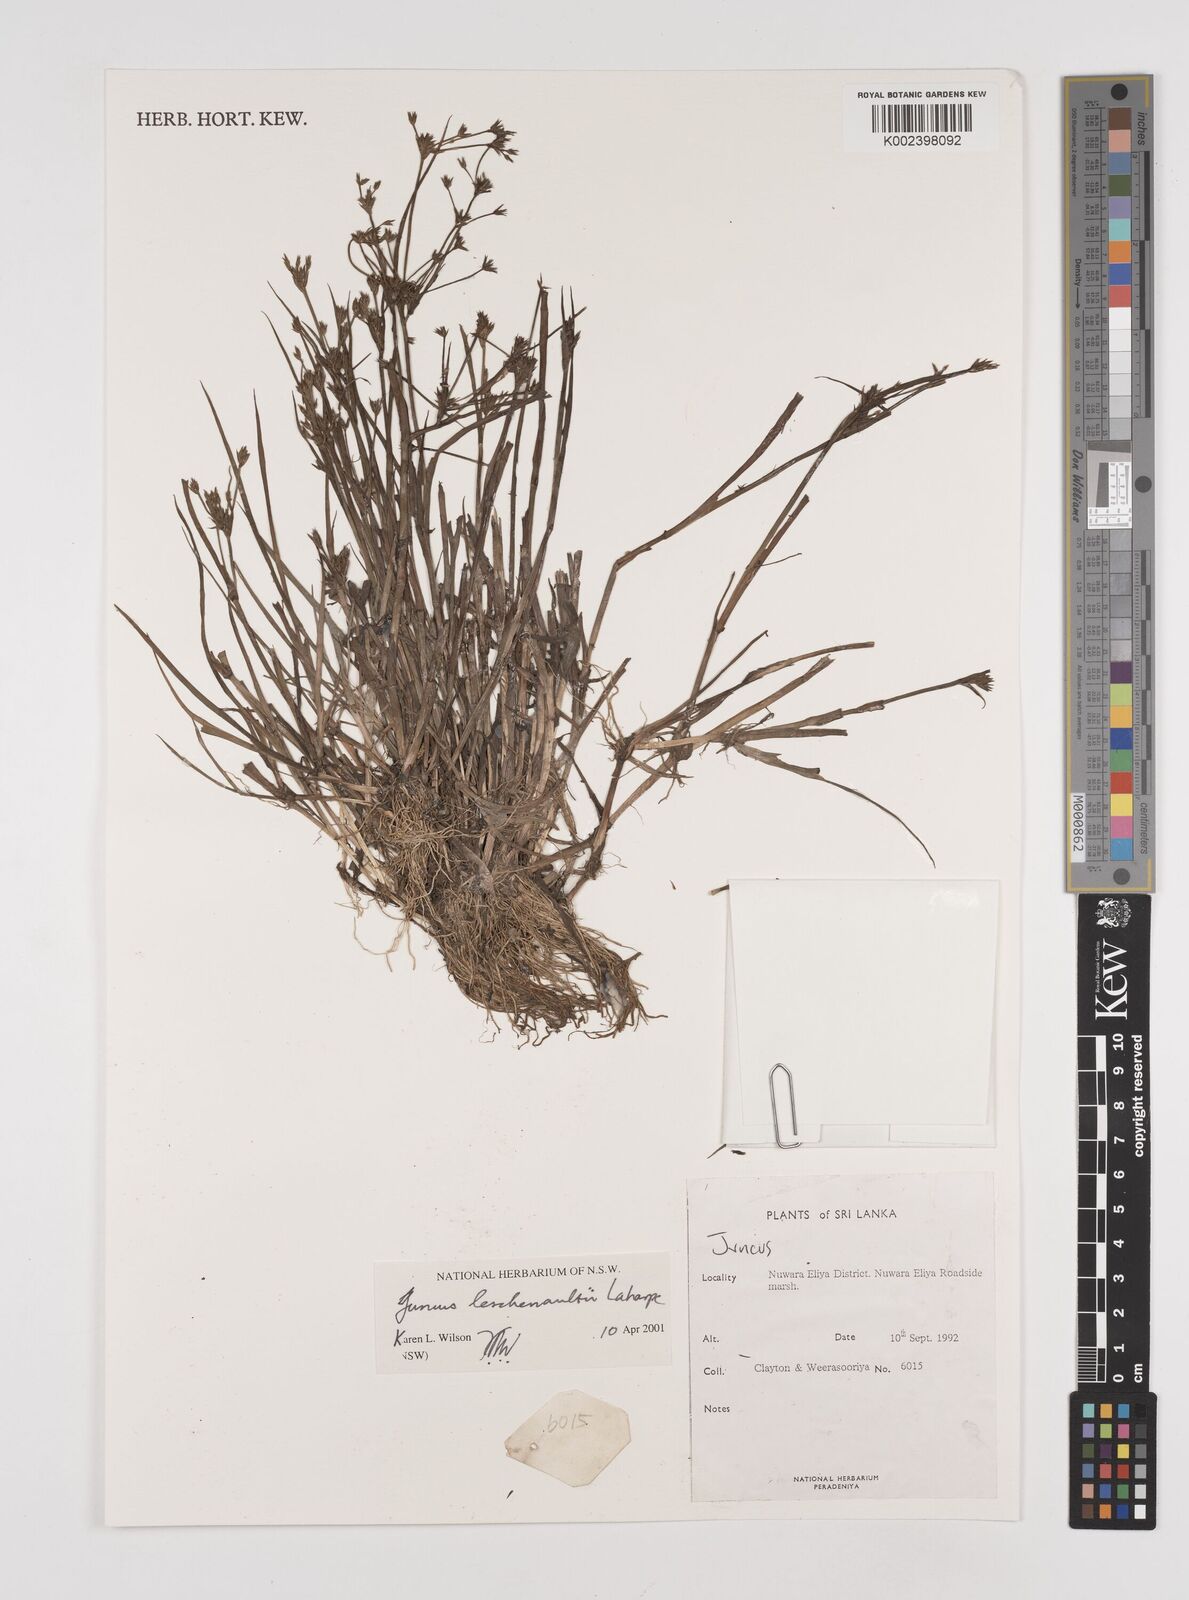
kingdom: Plantae
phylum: Tracheophyta
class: Liliopsida
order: Poales
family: Juncaceae
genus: Juncus
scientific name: Juncus
